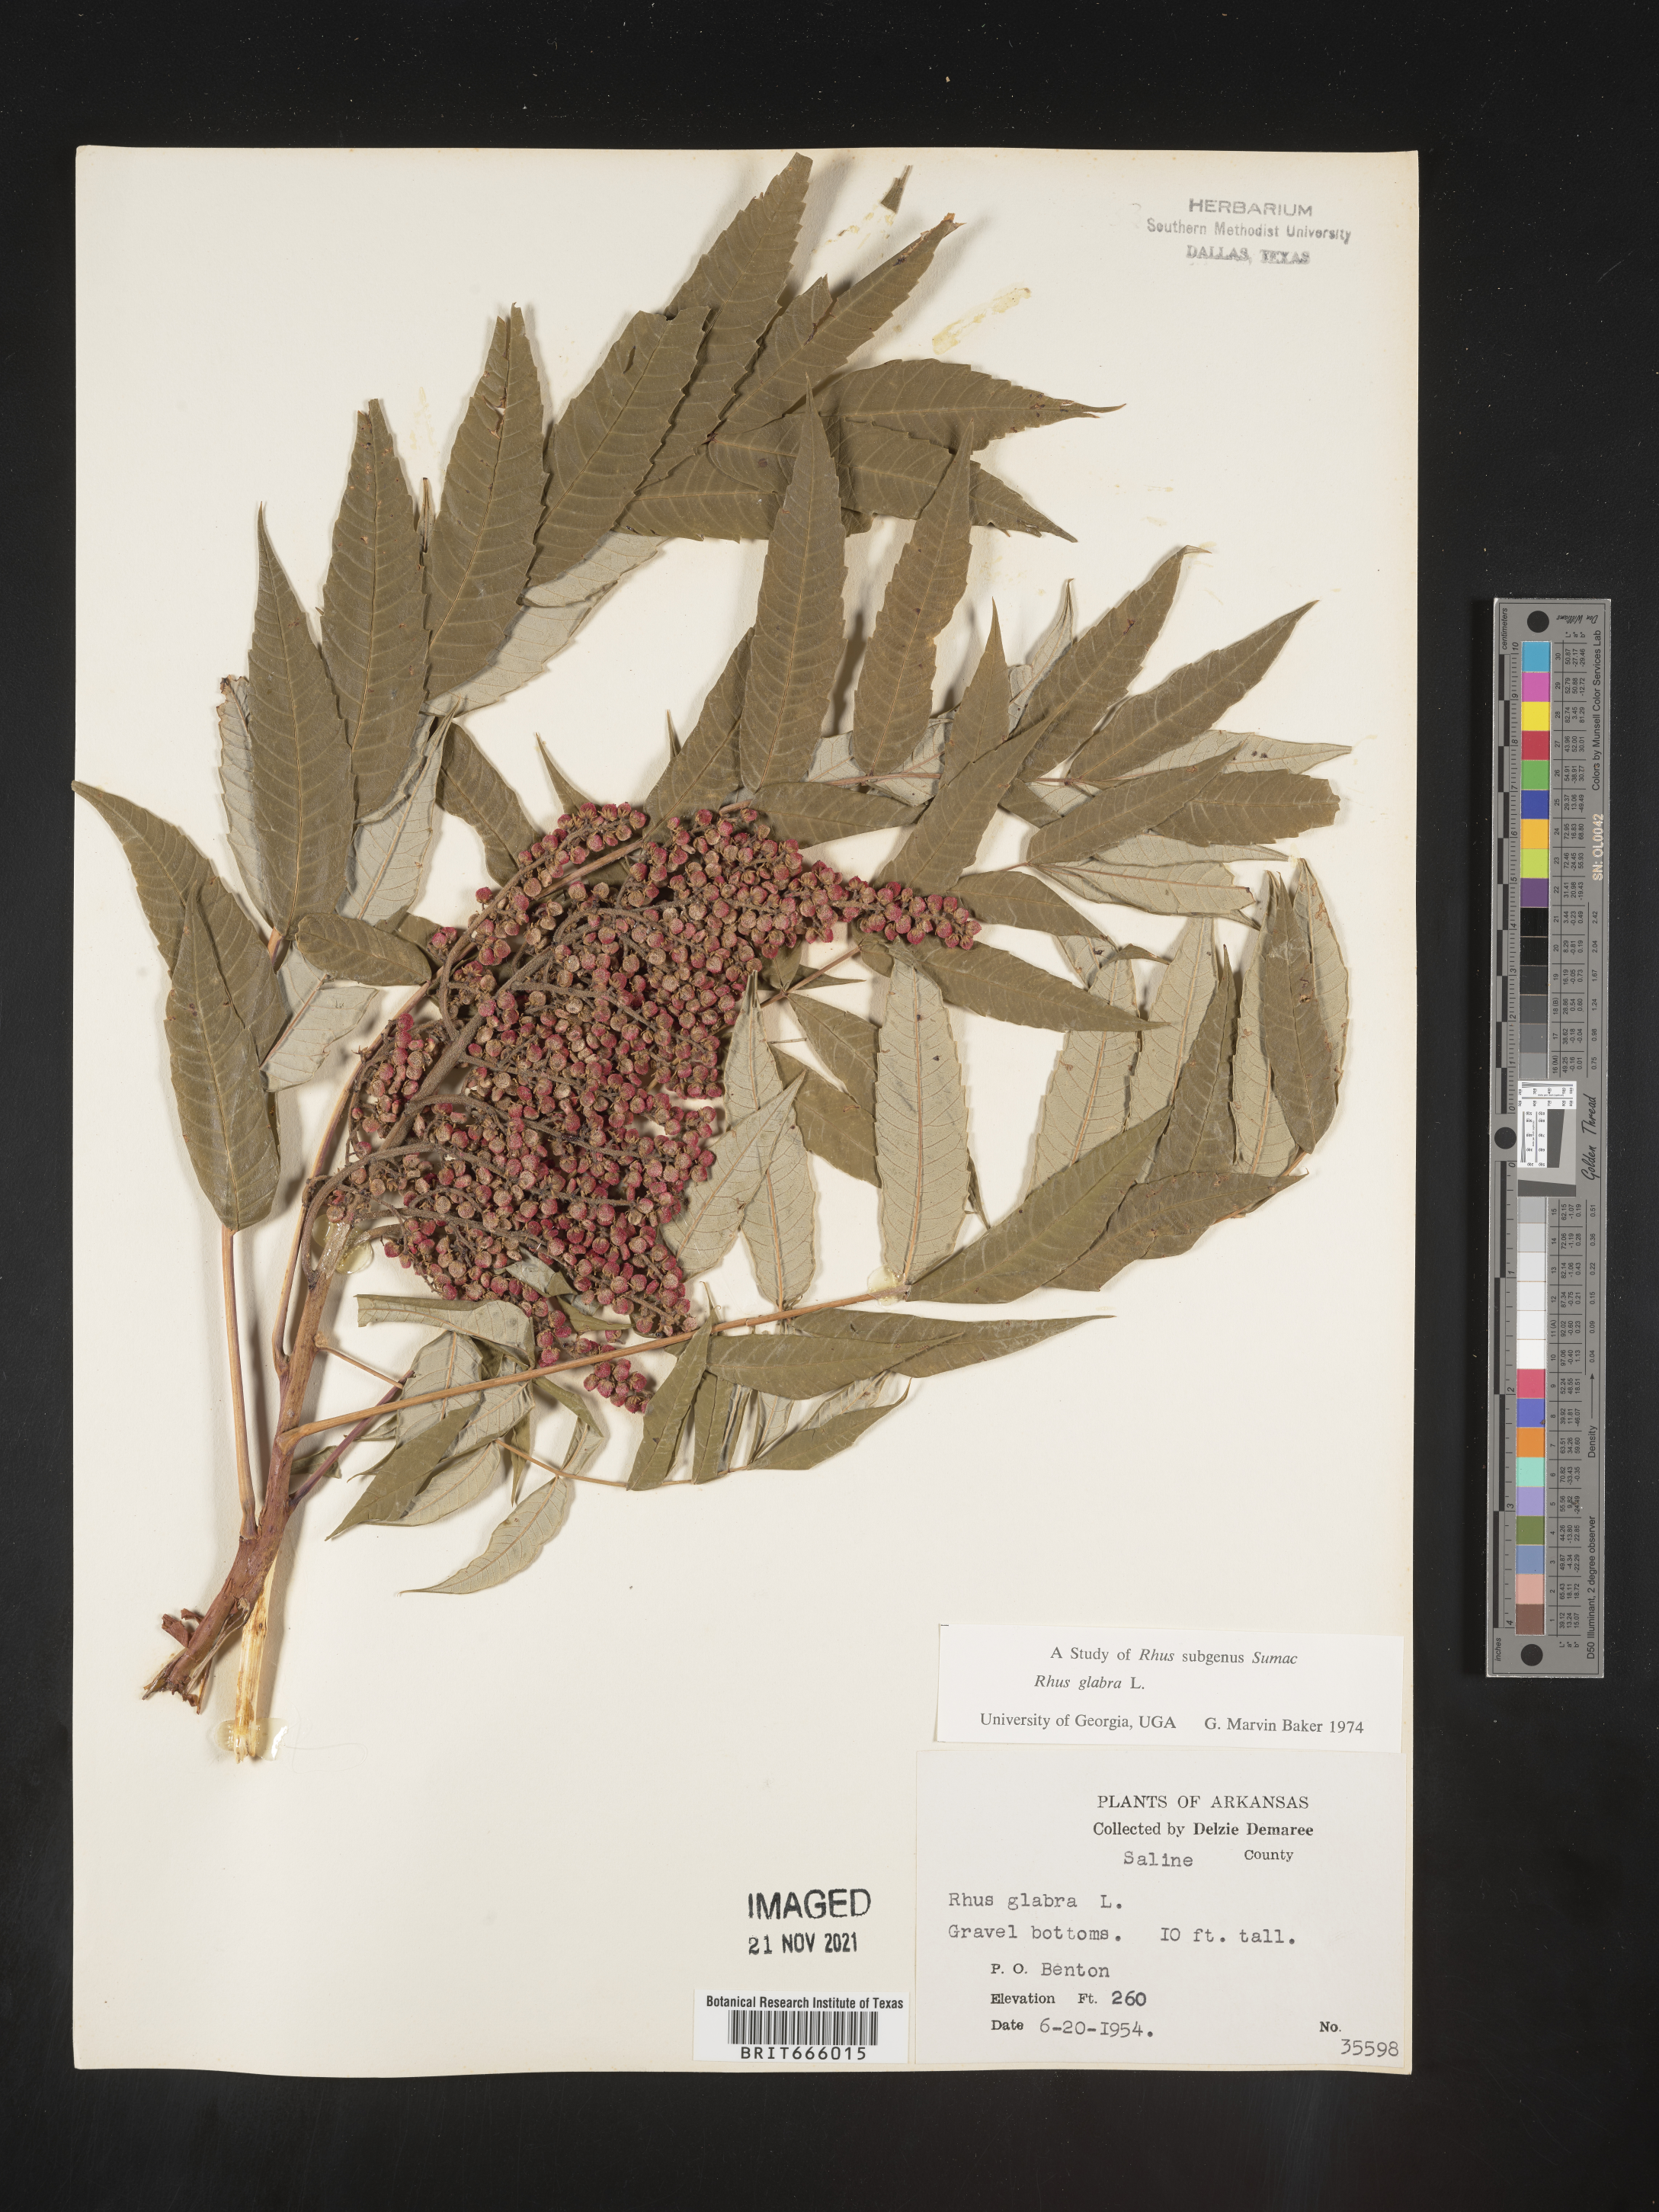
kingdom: Plantae
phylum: Tracheophyta
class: Magnoliopsida
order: Sapindales
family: Anacardiaceae
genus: Rhus
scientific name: Rhus glabra
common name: Scarlet sumac
